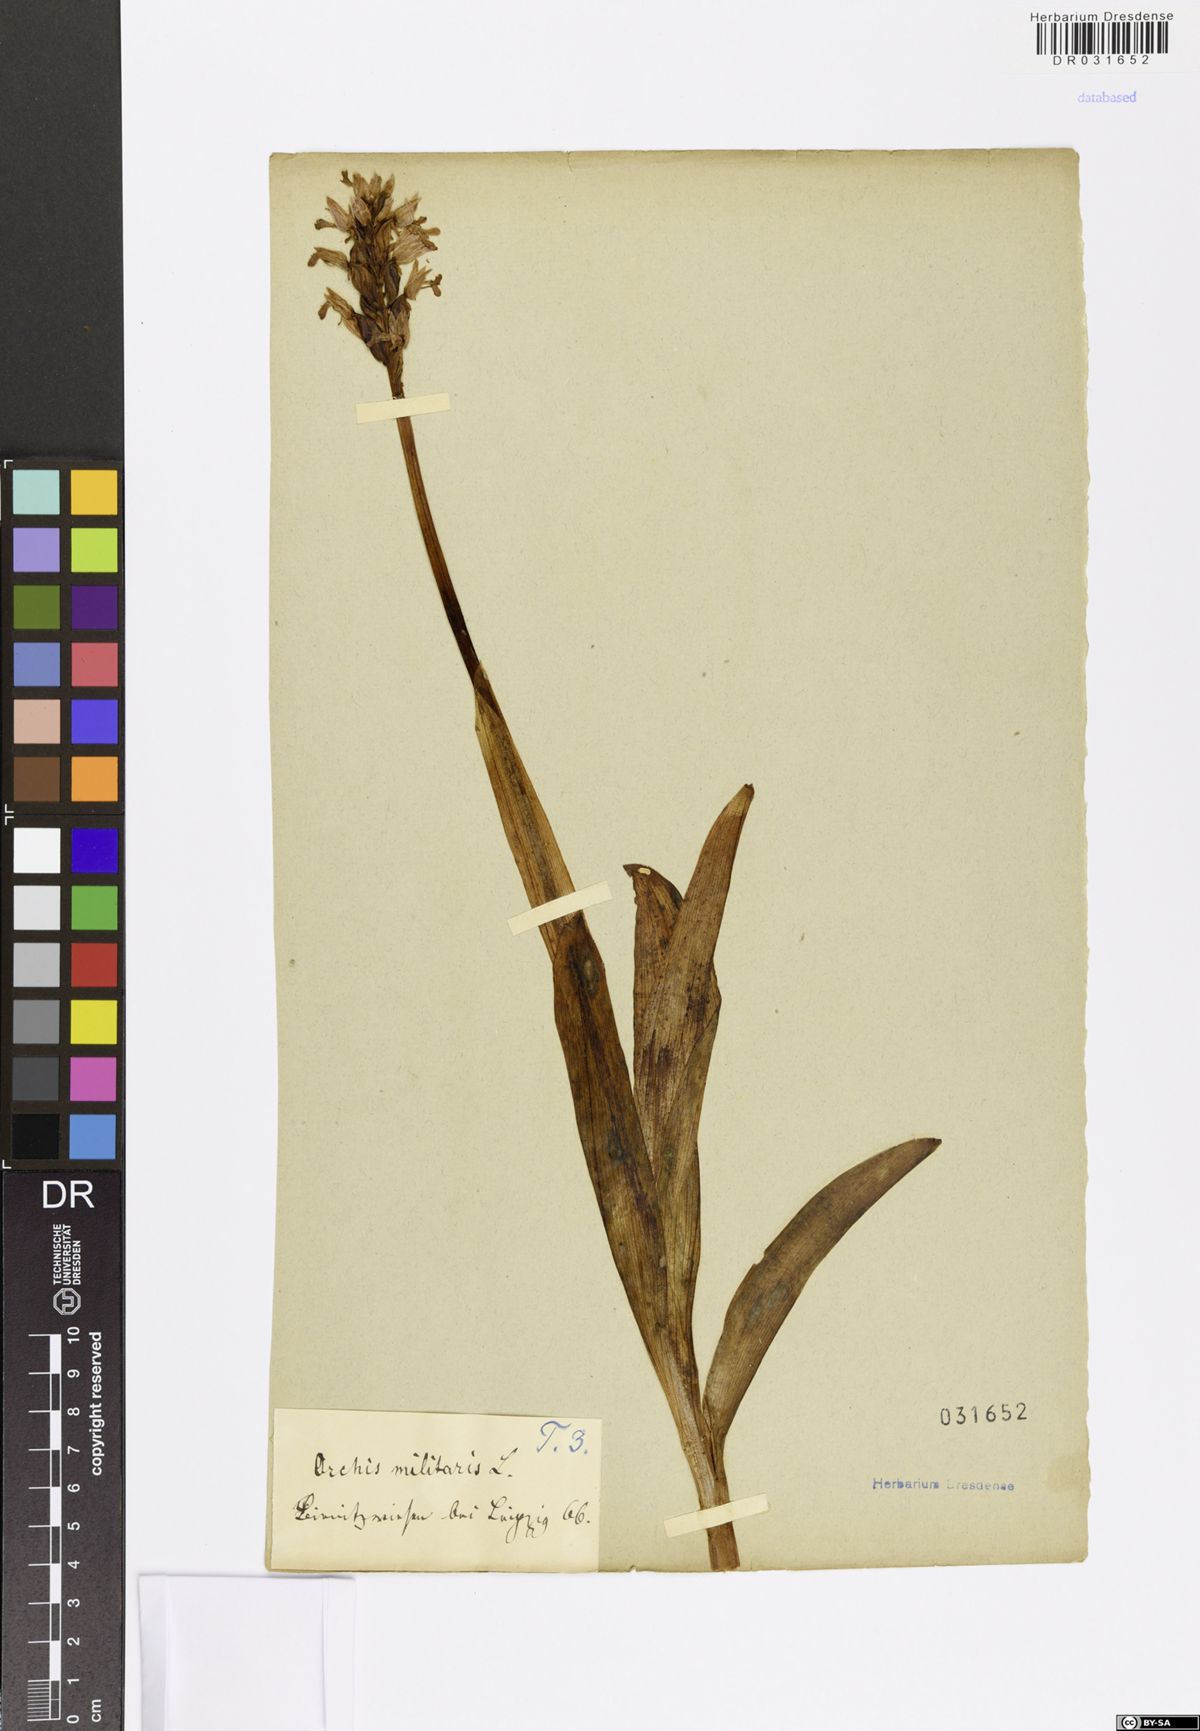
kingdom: Plantae
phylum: Tracheophyta
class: Liliopsida
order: Asparagales
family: Orchidaceae
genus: Orchis
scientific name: Orchis militaris
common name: Military orchid
